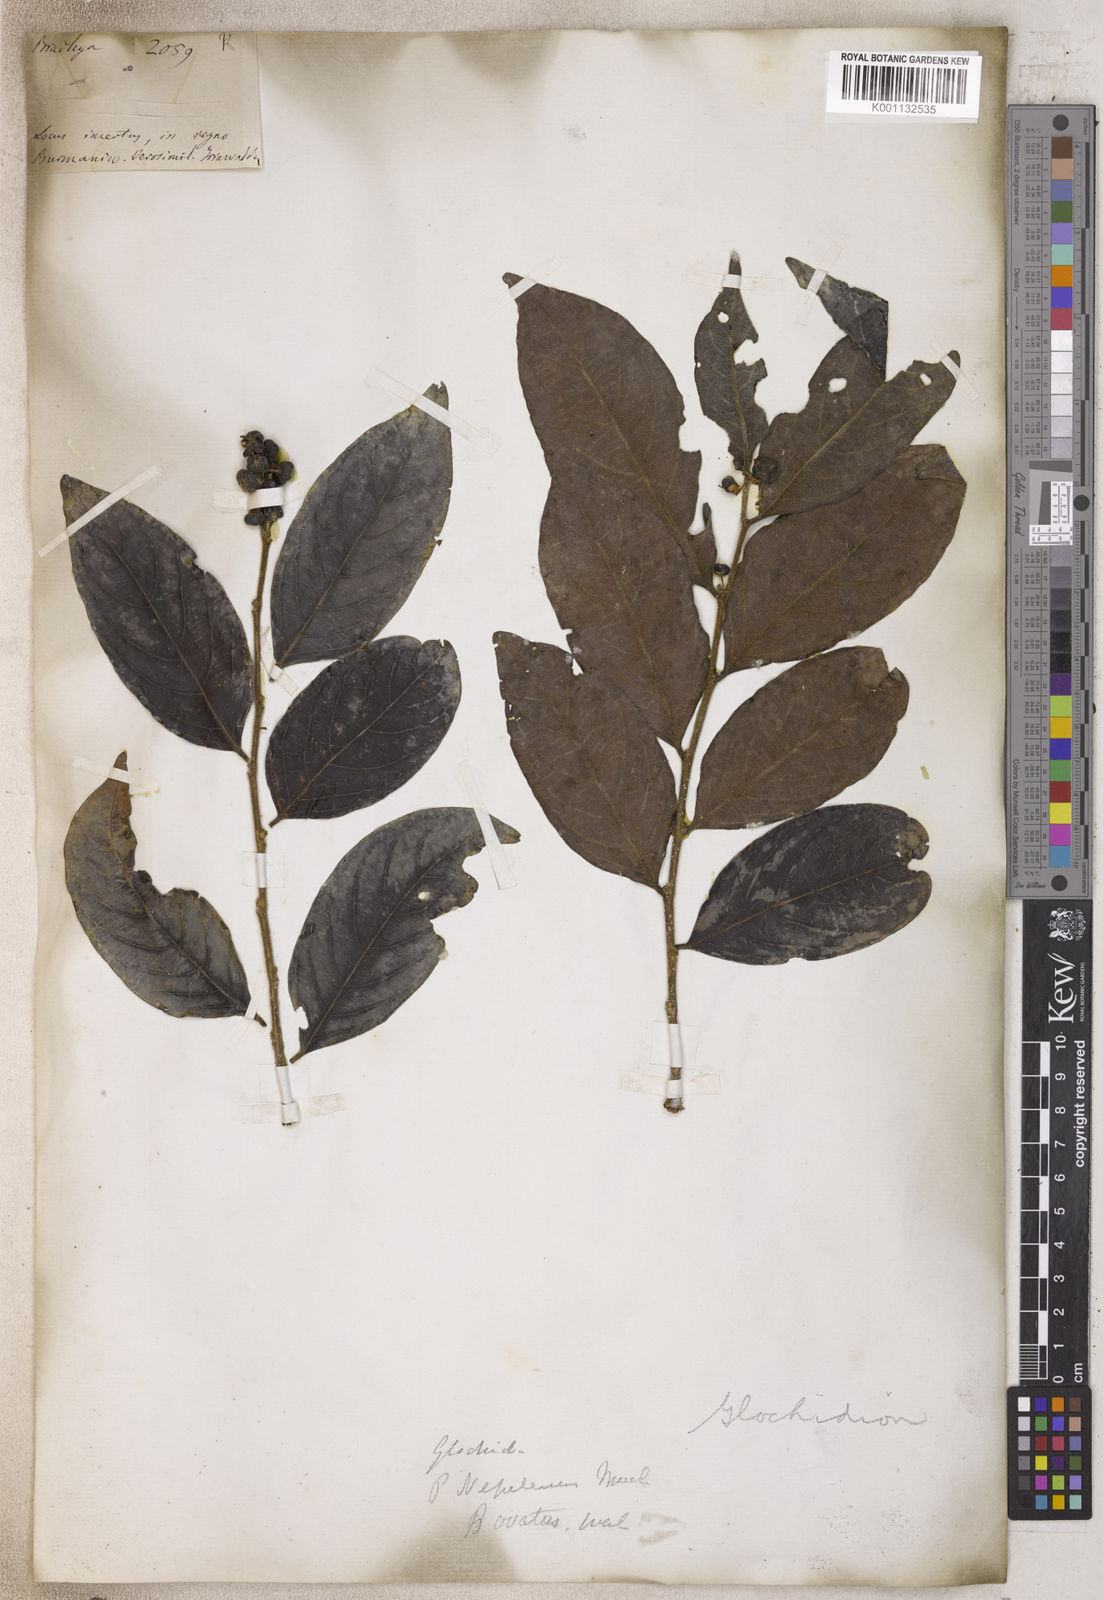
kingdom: Plantae
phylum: Tracheophyta
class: Magnoliopsida
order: Malpighiales
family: Phyllanthaceae
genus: Glochidion
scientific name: Glochidion
